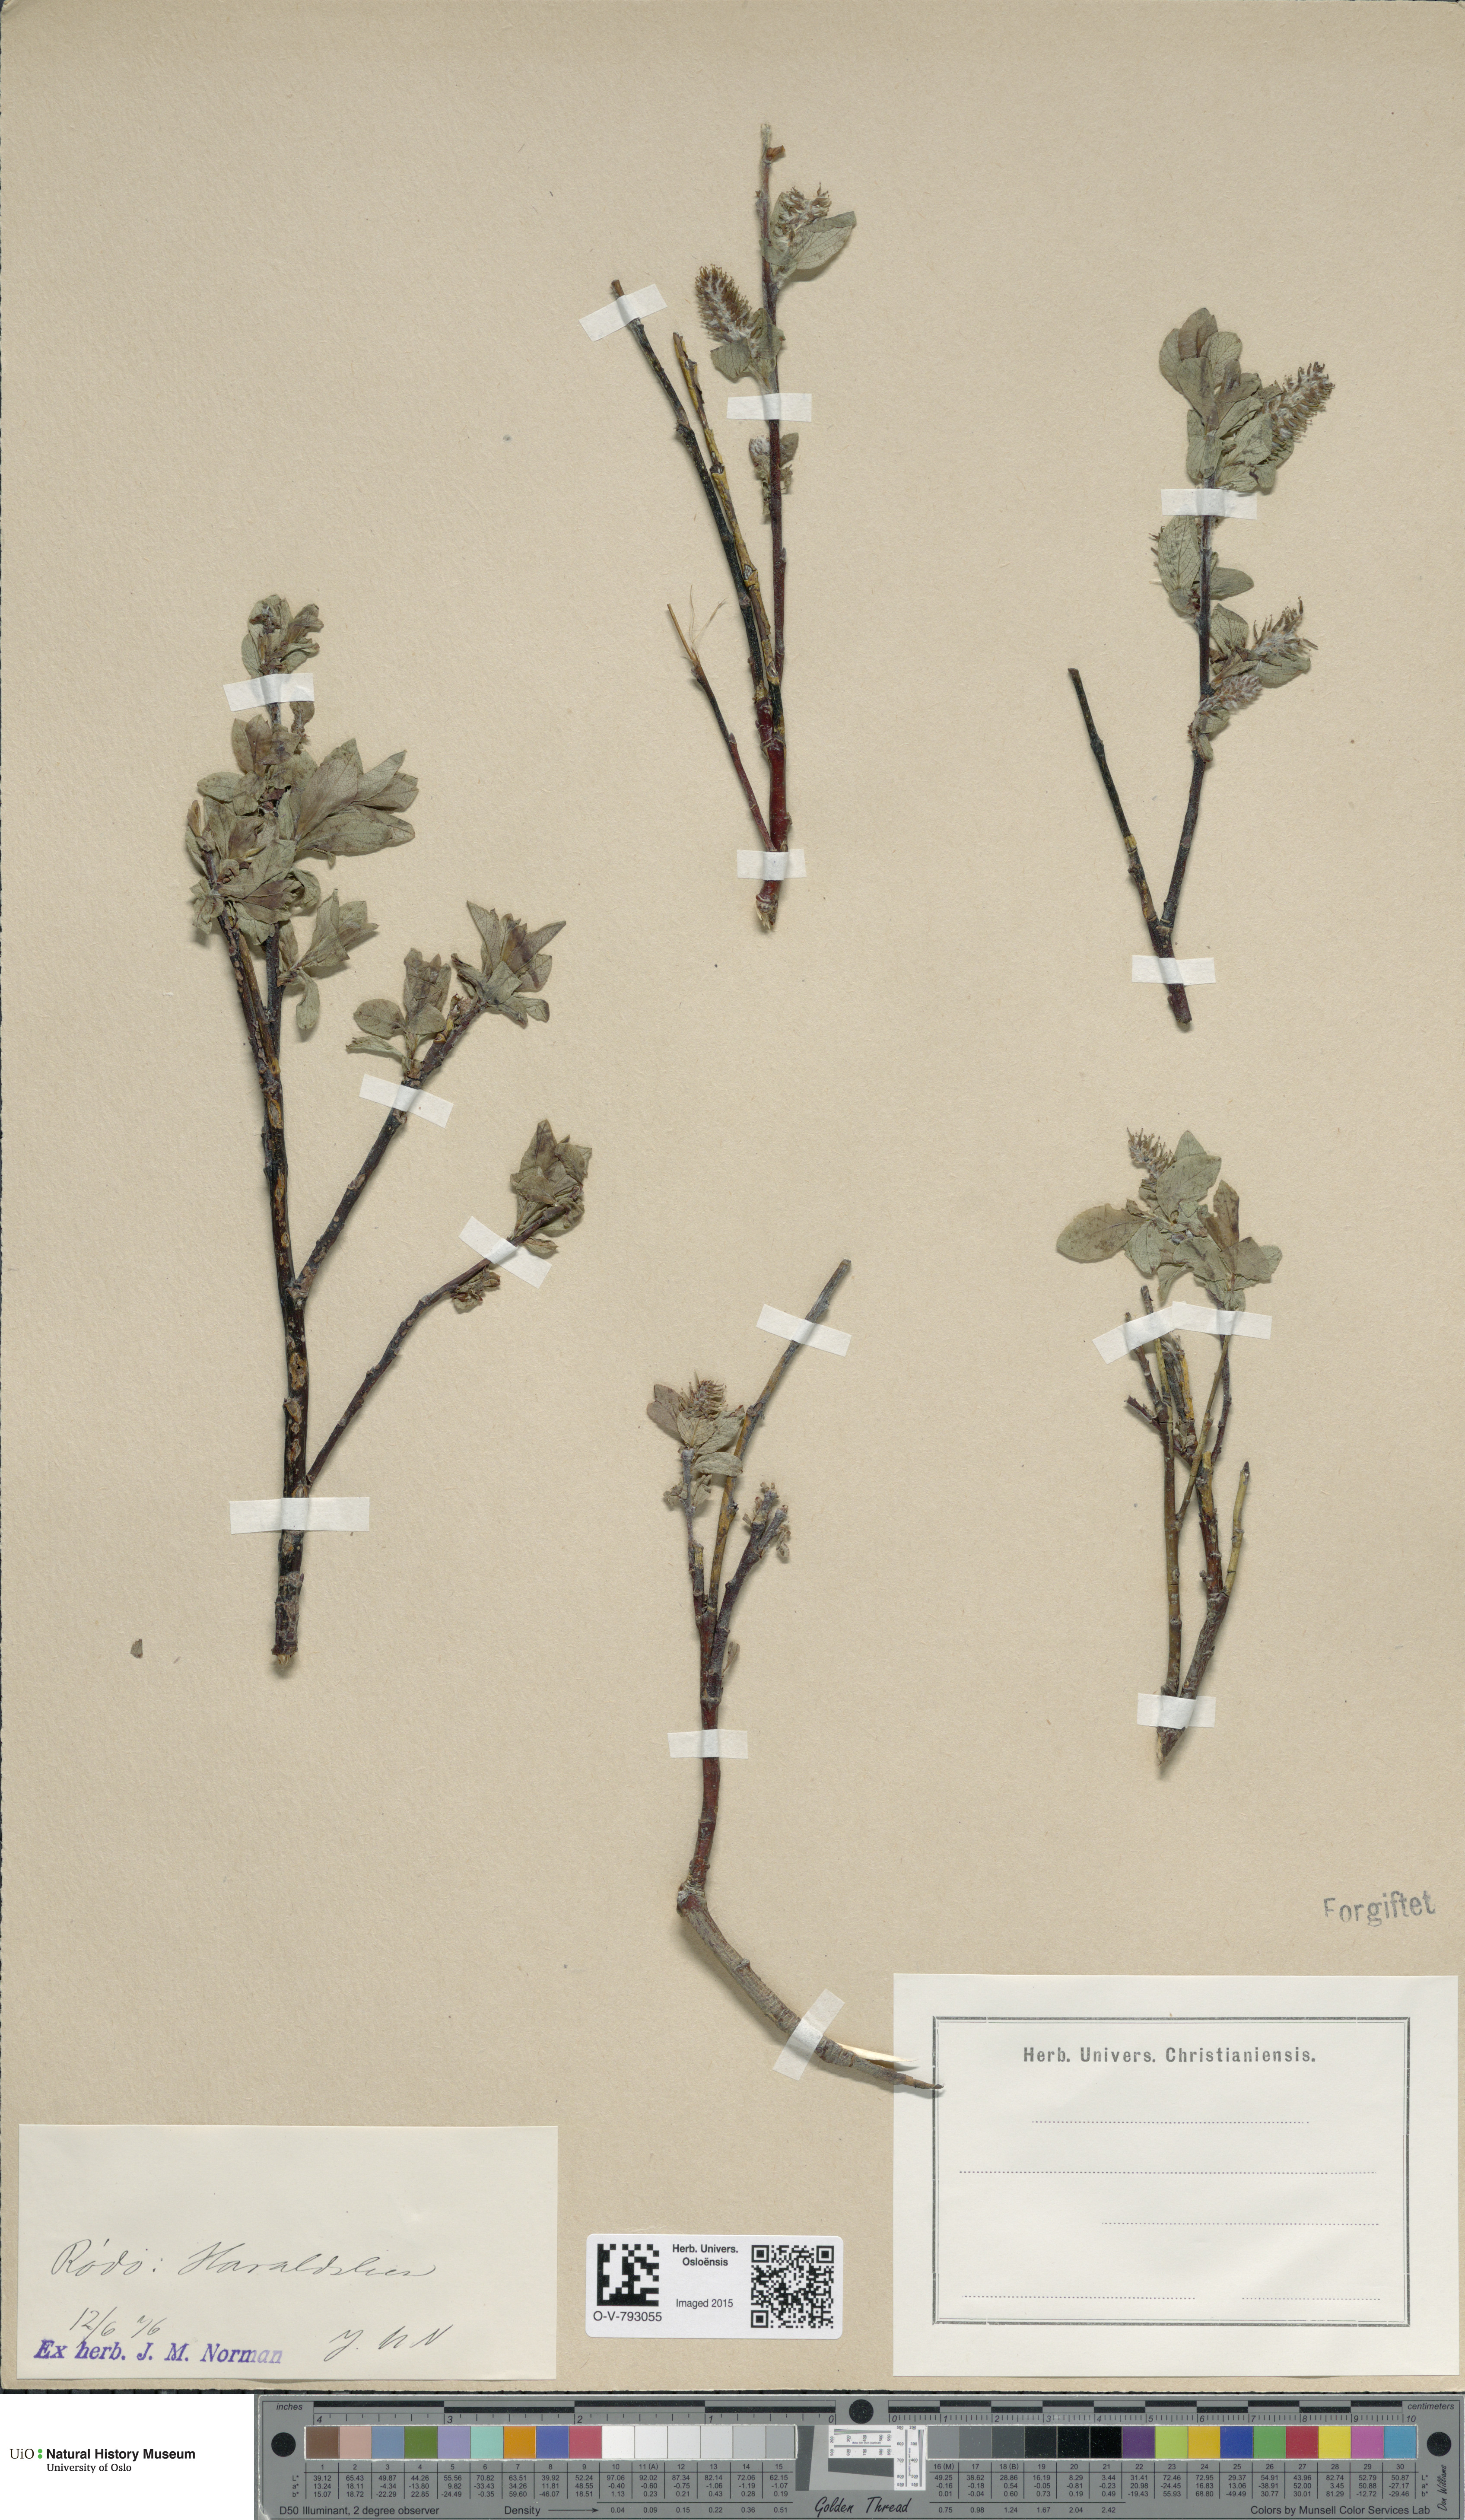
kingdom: Plantae
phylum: Tracheophyta
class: Magnoliopsida
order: Malpighiales
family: Salicaceae
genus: Salix
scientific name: Salix hastata
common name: Halberd willow
